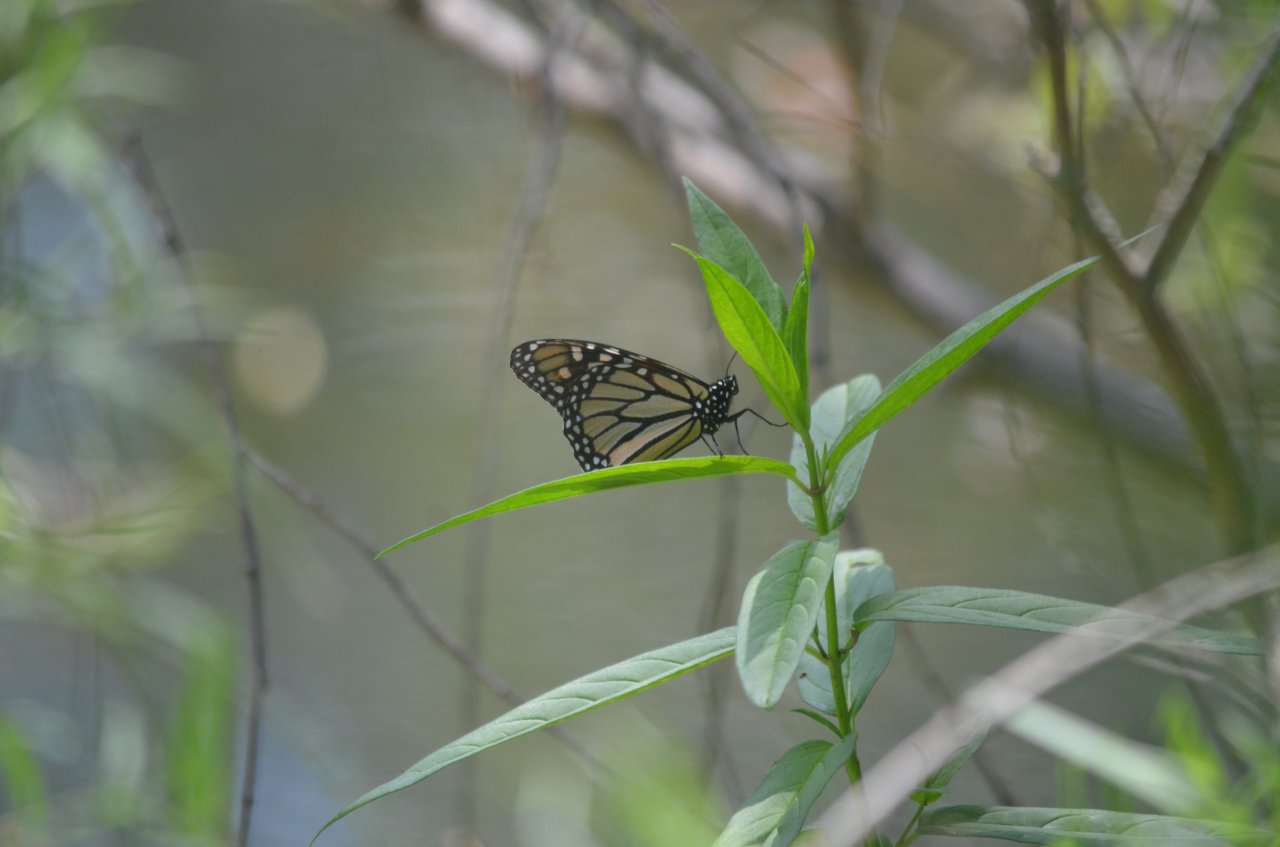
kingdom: Animalia
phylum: Arthropoda
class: Insecta
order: Lepidoptera
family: Nymphalidae
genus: Danaus
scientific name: Danaus plexippus
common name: Monarch
